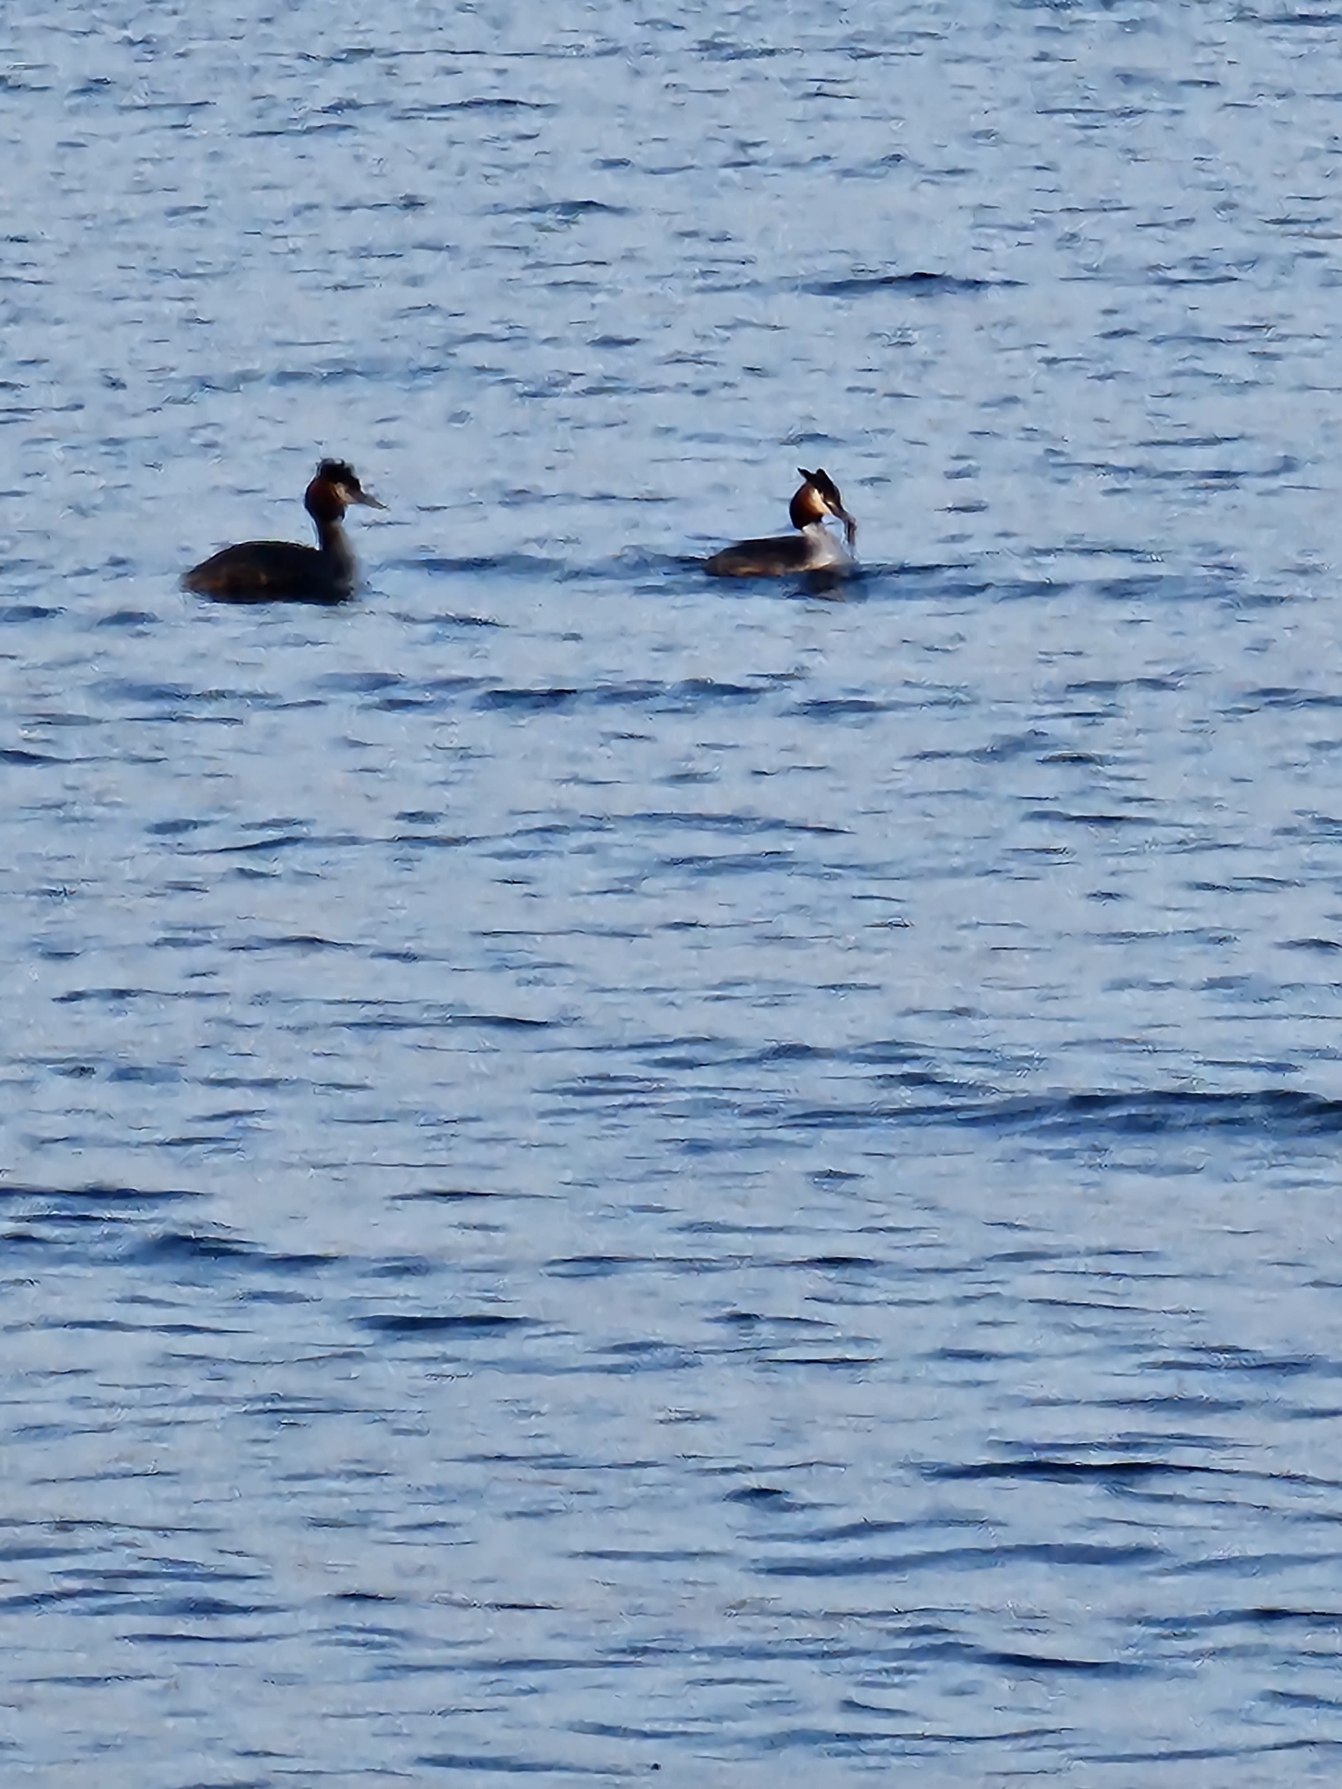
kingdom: Animalia
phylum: Chordata
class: Aves
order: Podicipediformes
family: Podicipedidae
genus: Podiceps
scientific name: Podiceps cristatus
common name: Toppet lappedykker
